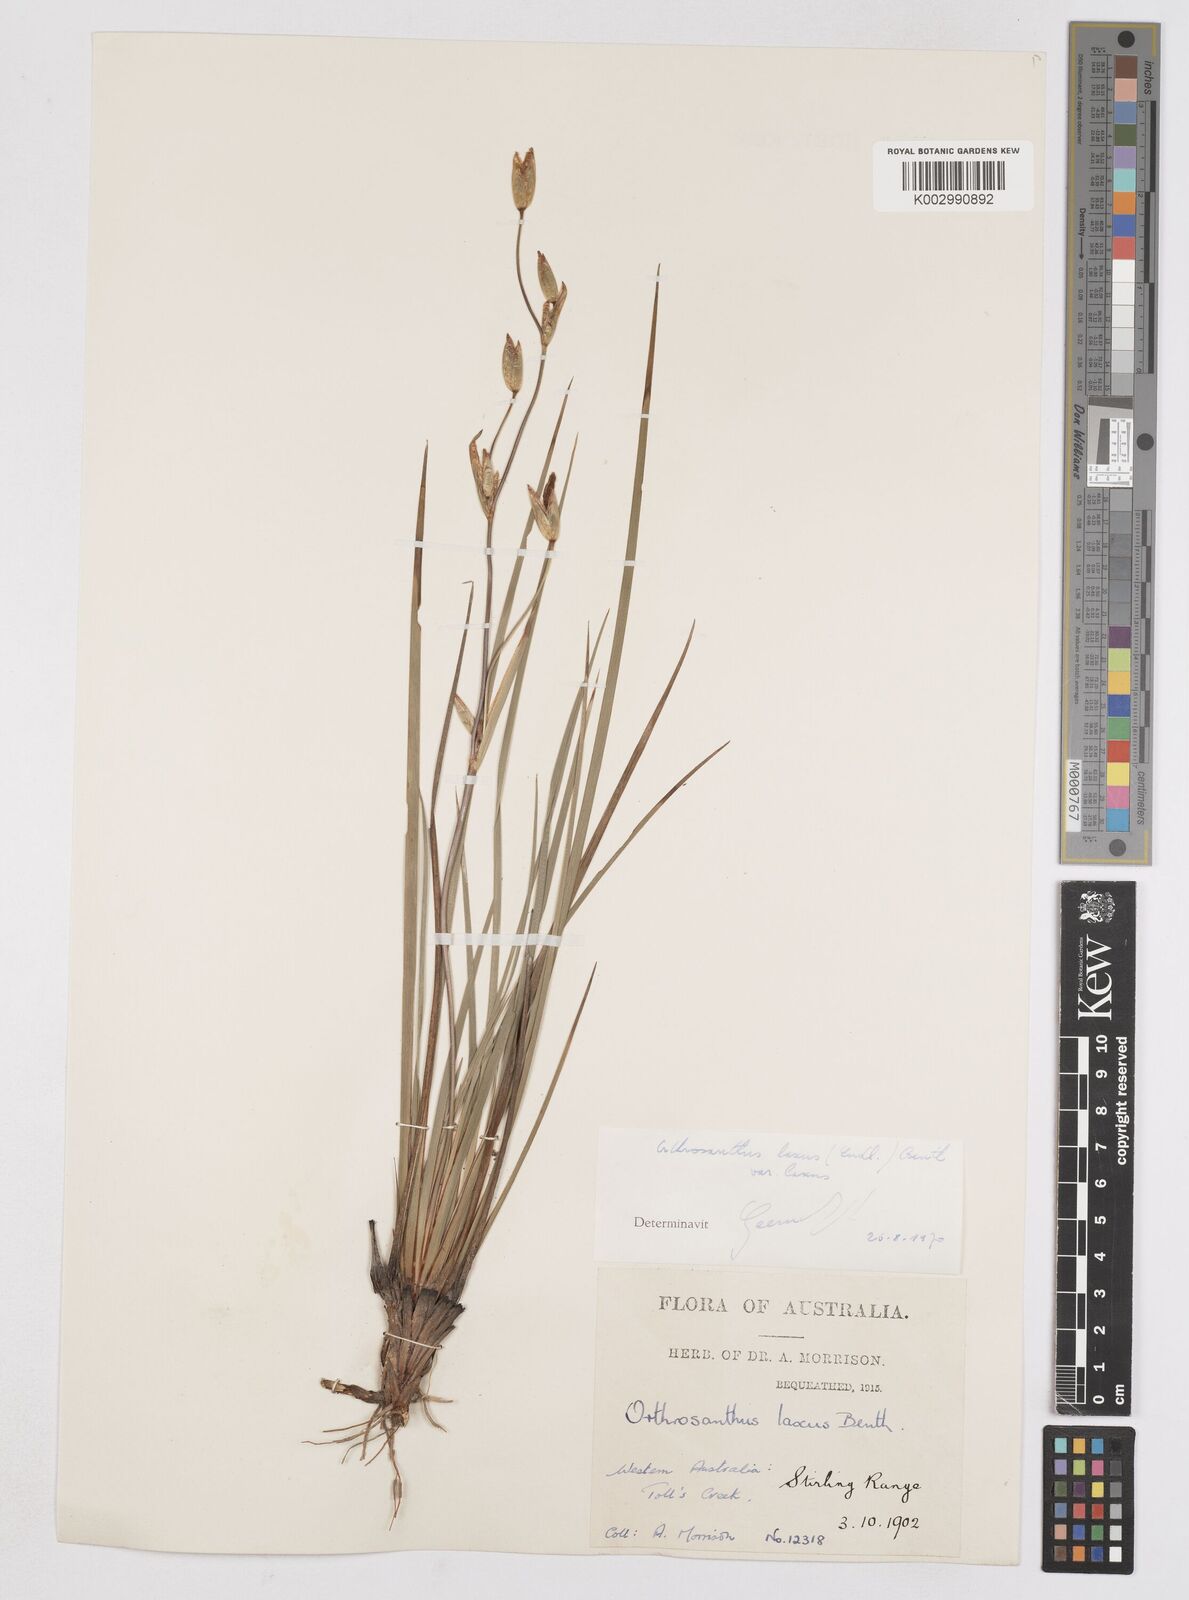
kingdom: Plantae
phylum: Tracheophyta
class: Liliopsida
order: Asparagales
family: Iridaceae
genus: Orthrosanthus
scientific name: Orthrosanthus laxus
